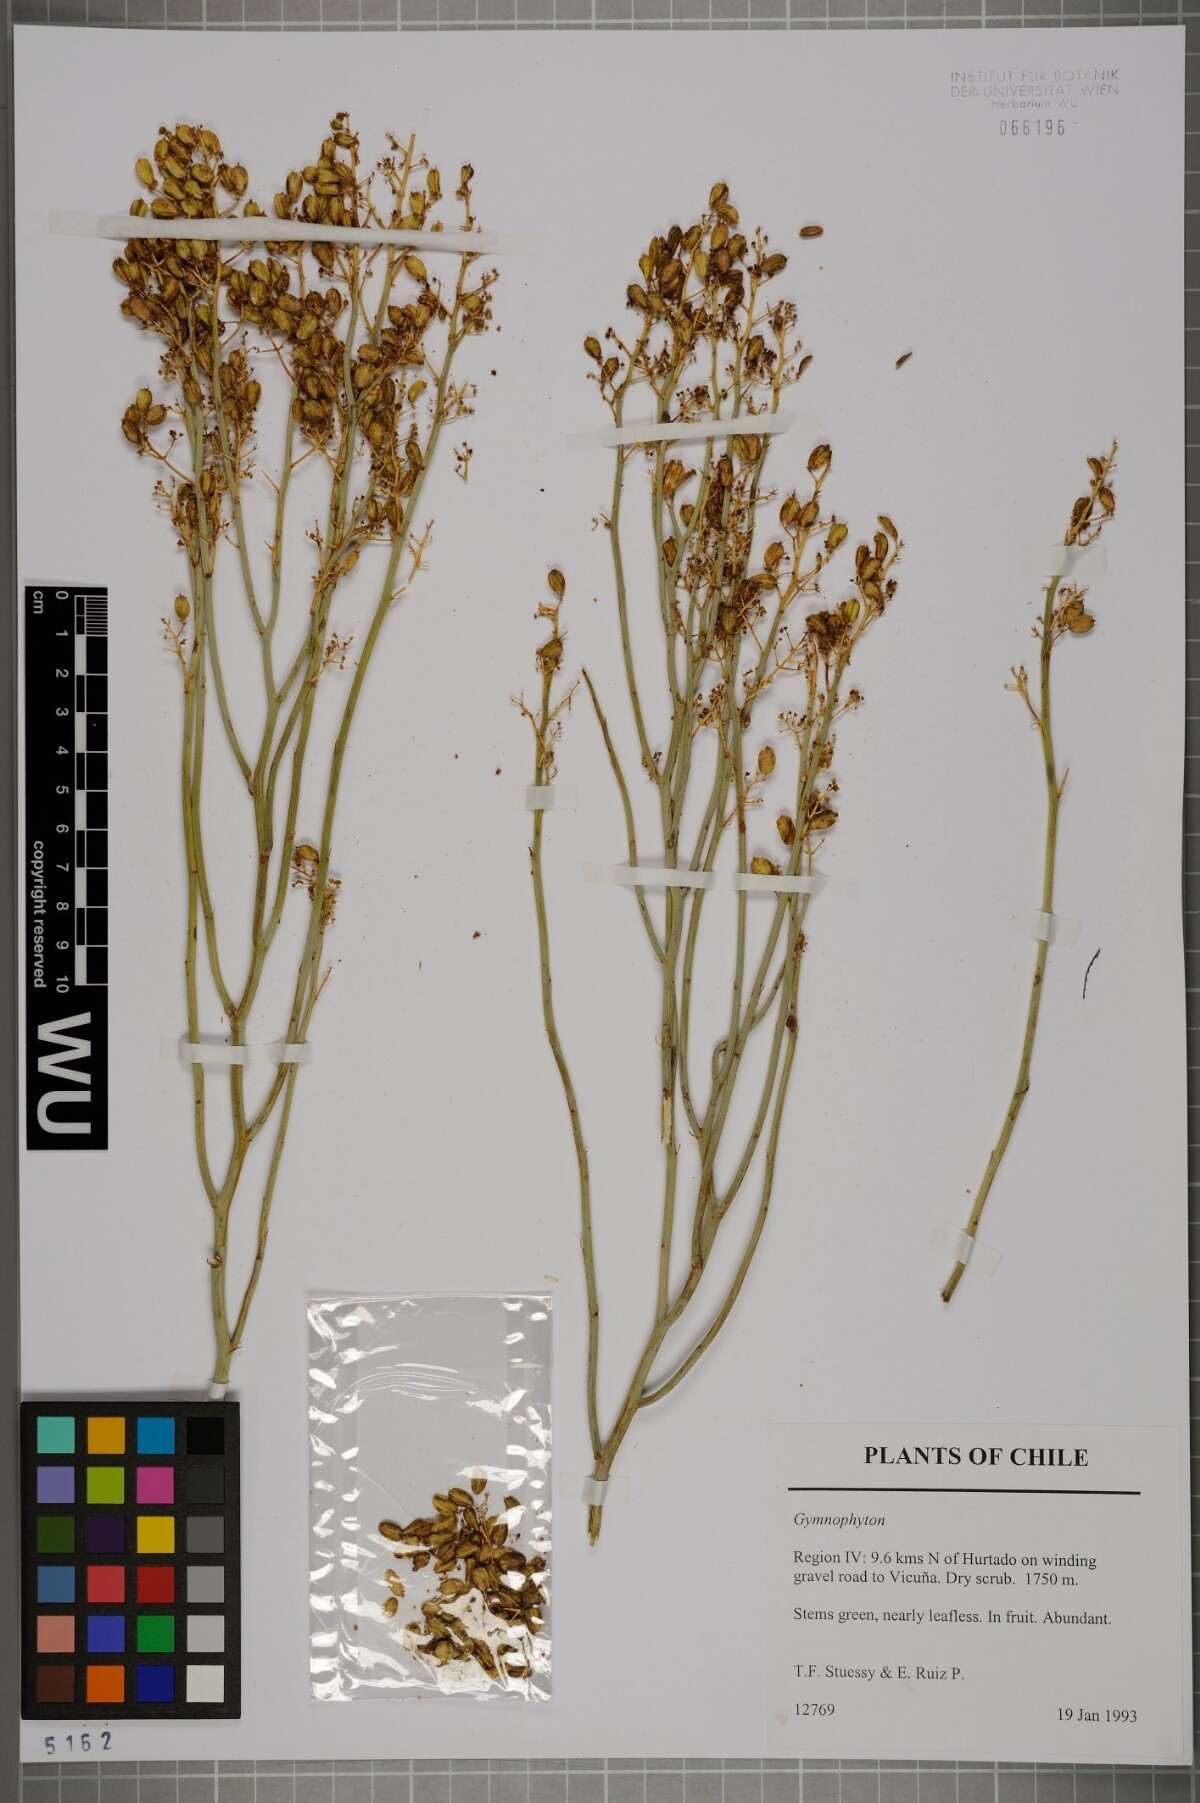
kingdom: Plantae
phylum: Tracheophyta
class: Magnoliopsida
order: Apiales
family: Apiaceae
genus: Gymnophyton
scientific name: Gymnophyton
